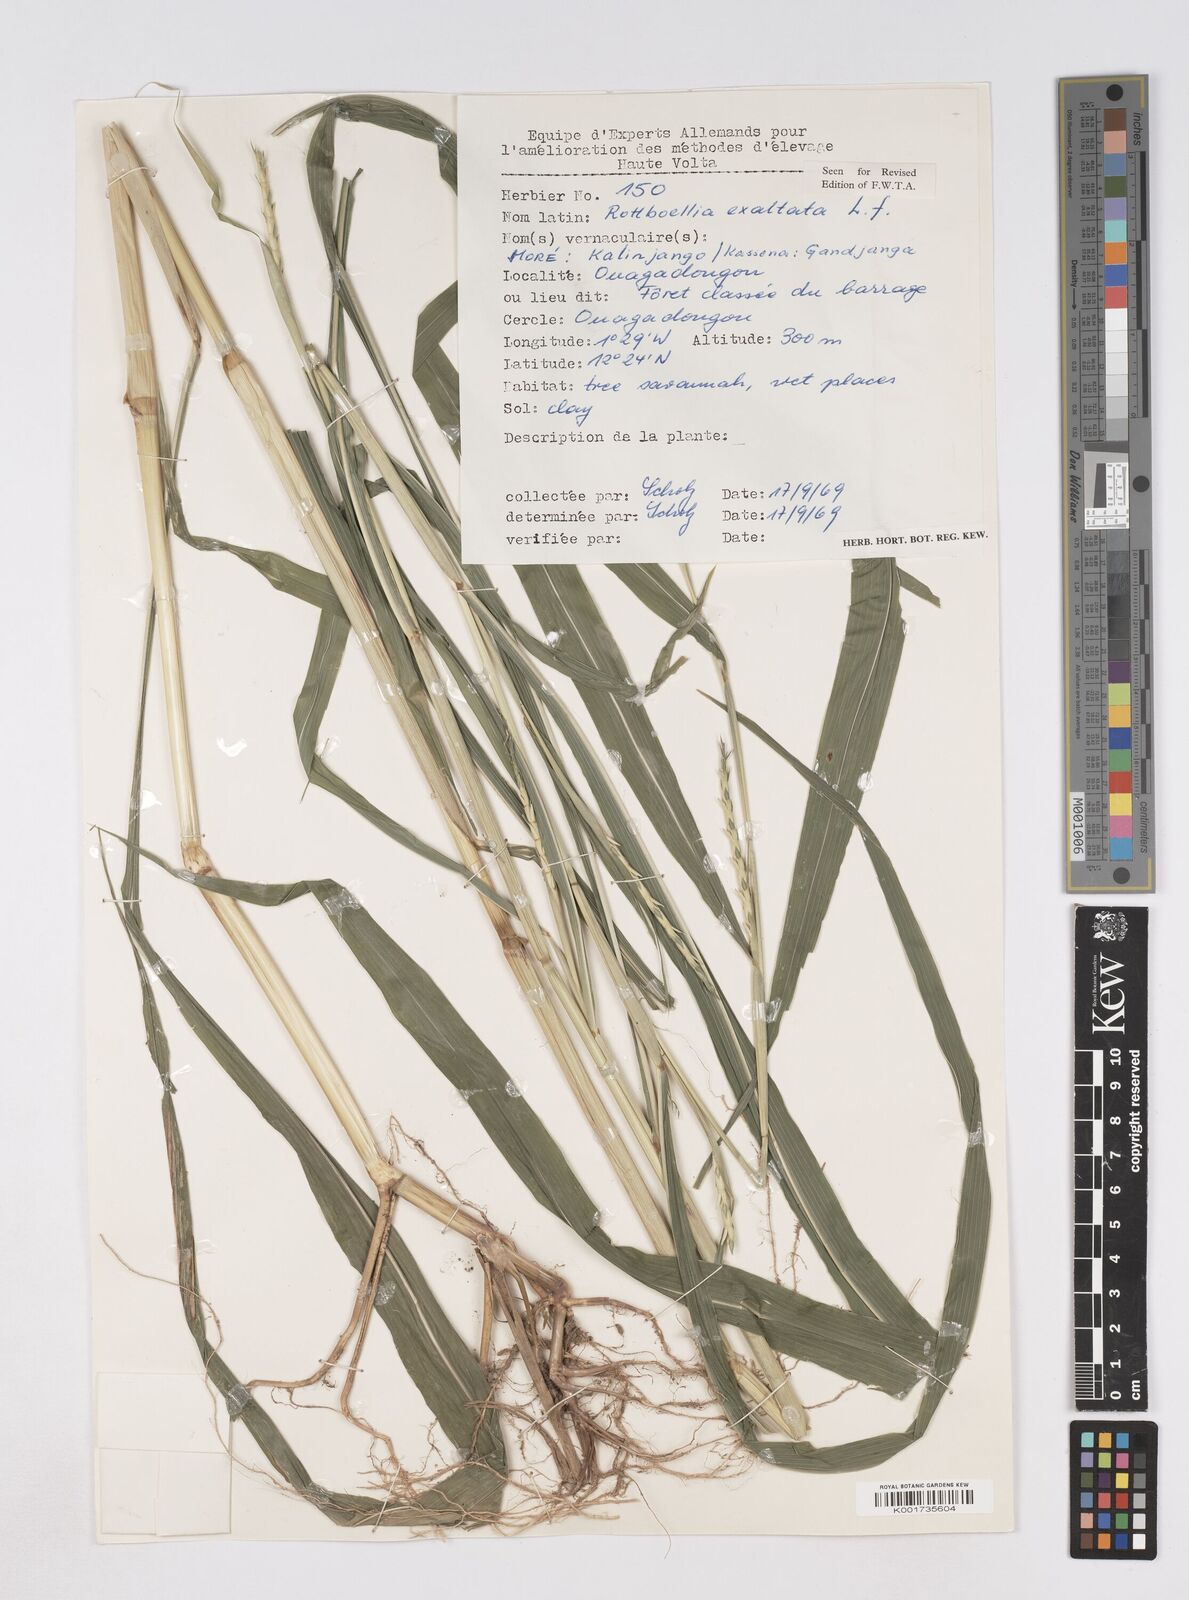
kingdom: Plantae
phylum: Tracheophyta
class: Liliopsida
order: Poales
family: Poaceae
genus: Ophiuros
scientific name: Ophiuros exaltatus
